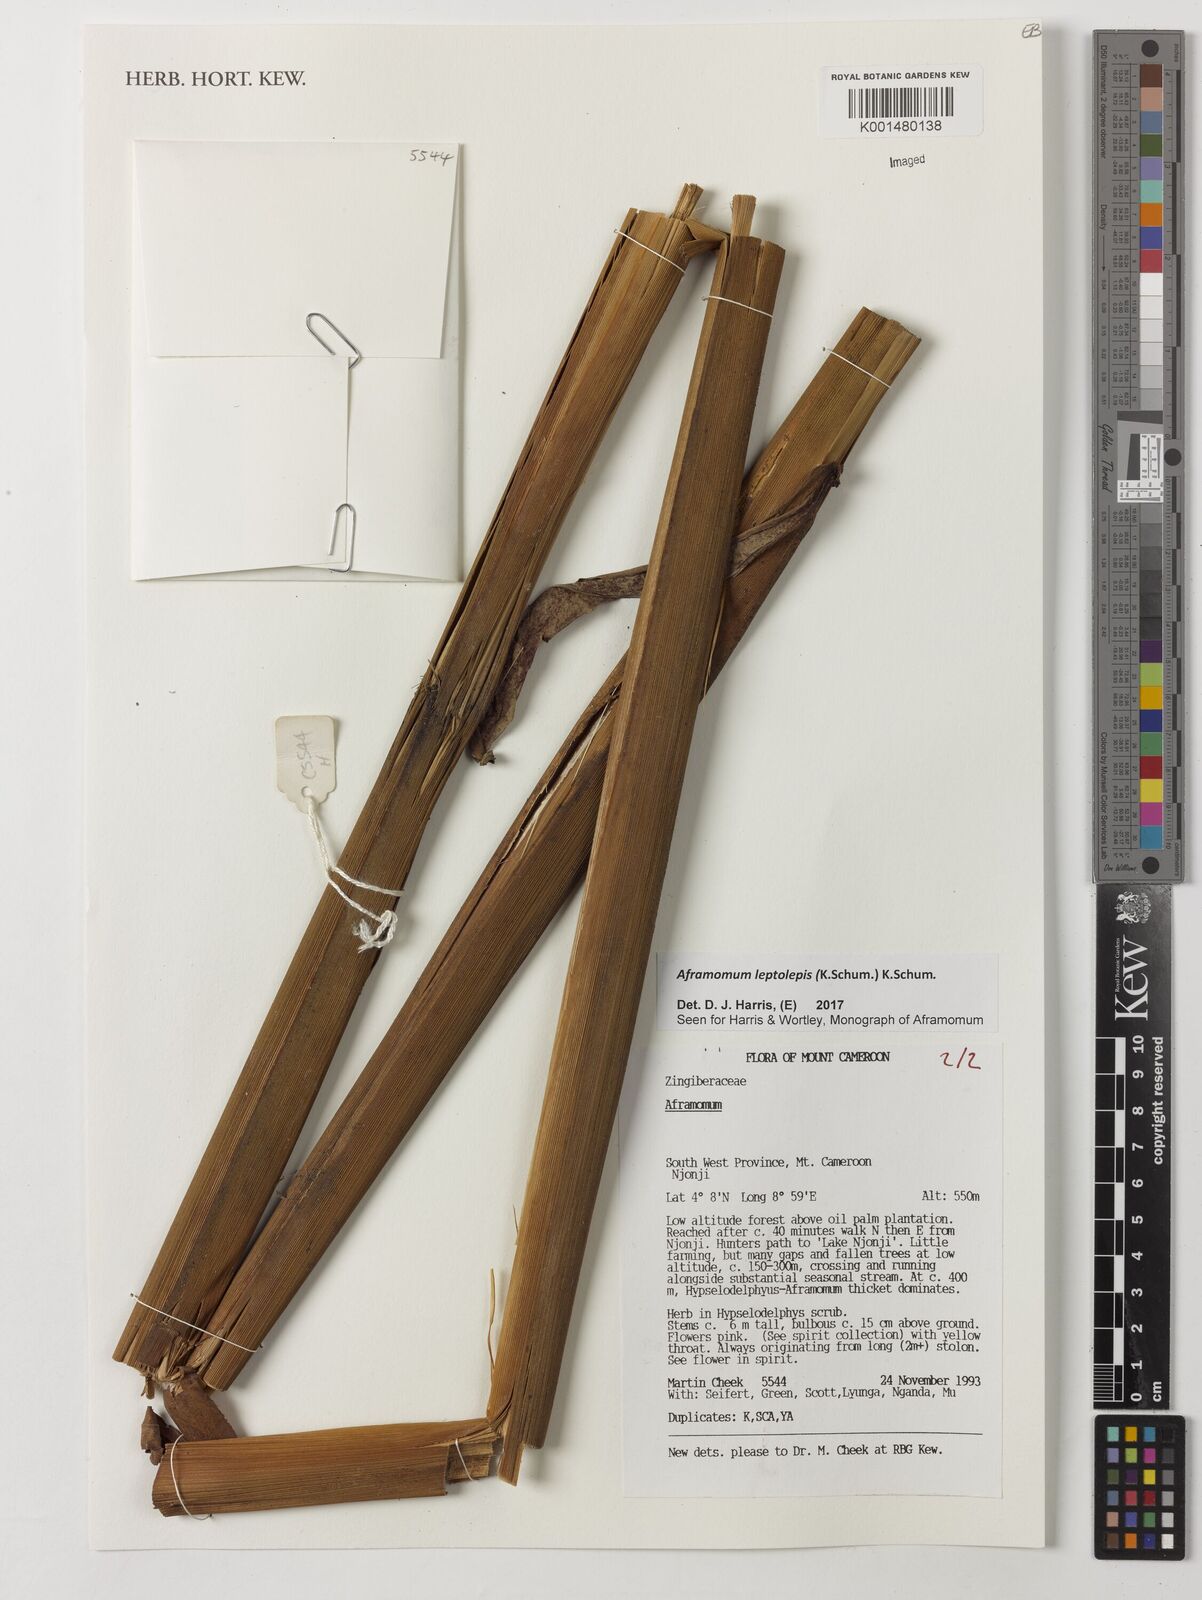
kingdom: Plantae
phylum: Tracheophyta
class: Liliopsida
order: Zingiberales
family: Zingiberaceae
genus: Aframomum
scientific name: Aframomum leptolepis
